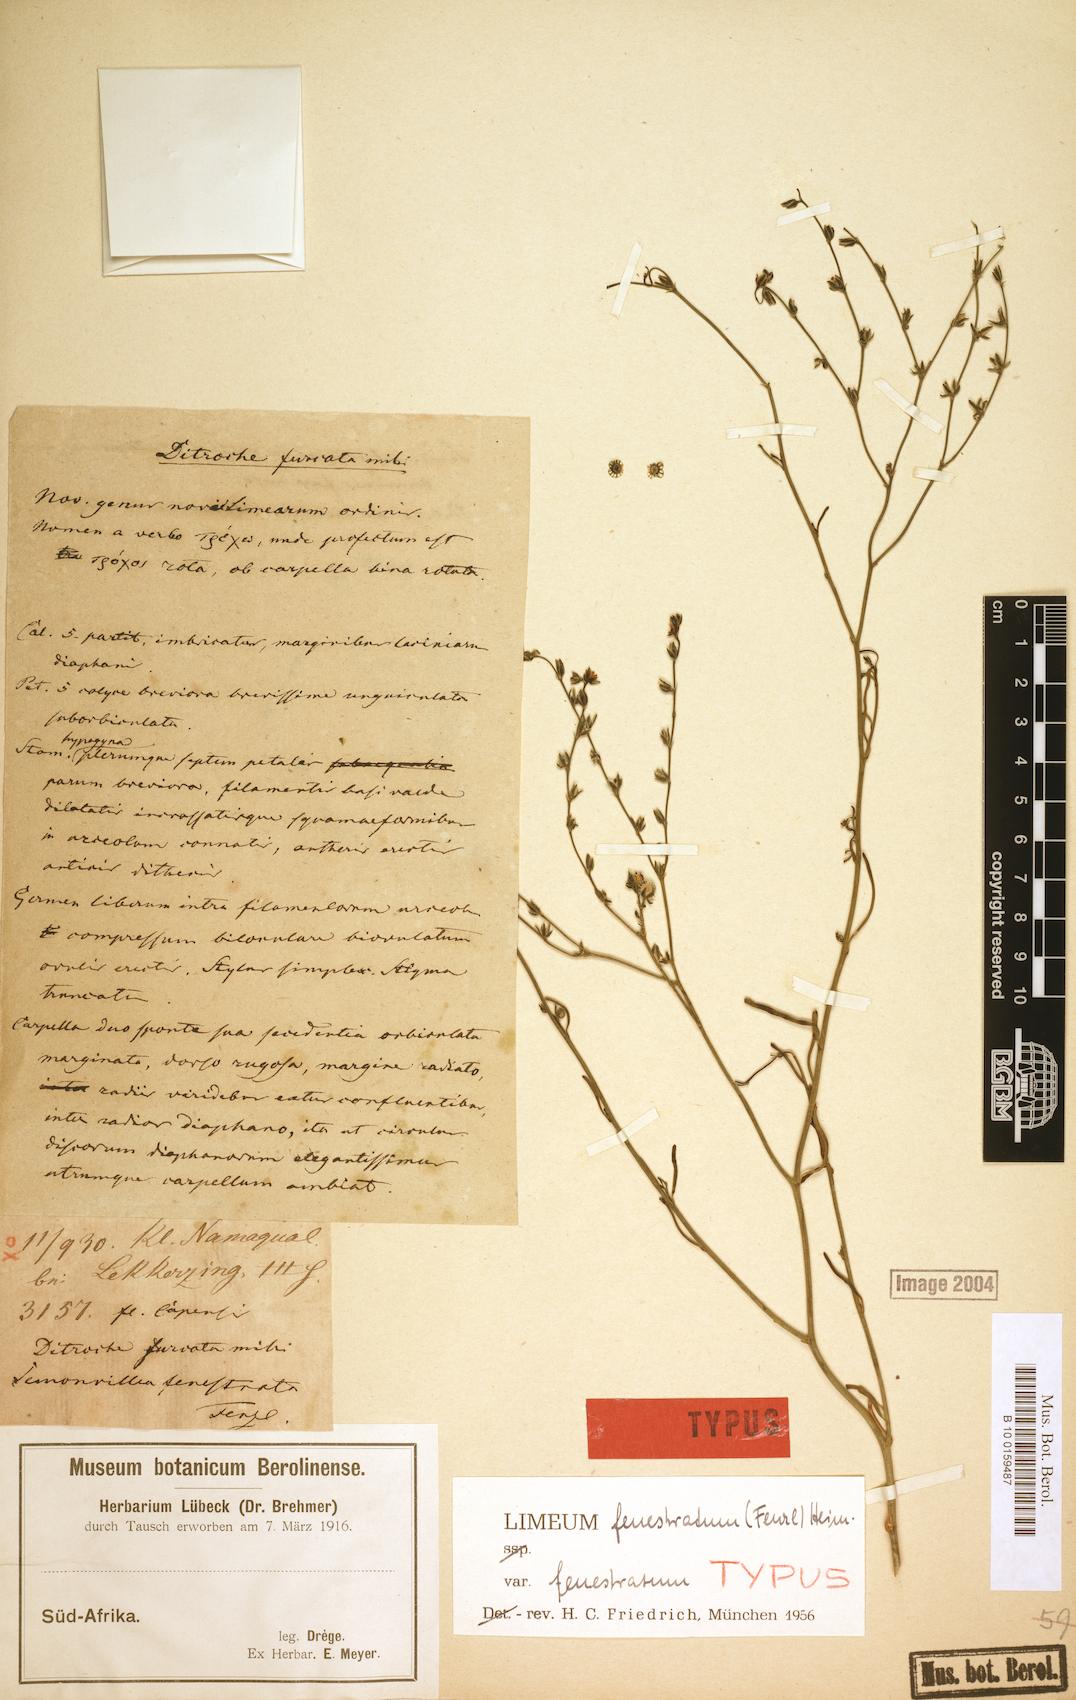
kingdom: Plantae
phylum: Tracheophyta
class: Magnoliopsida
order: Caryophyllales
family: Limeaceae
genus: Limeum
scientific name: Limeum fenestratum
